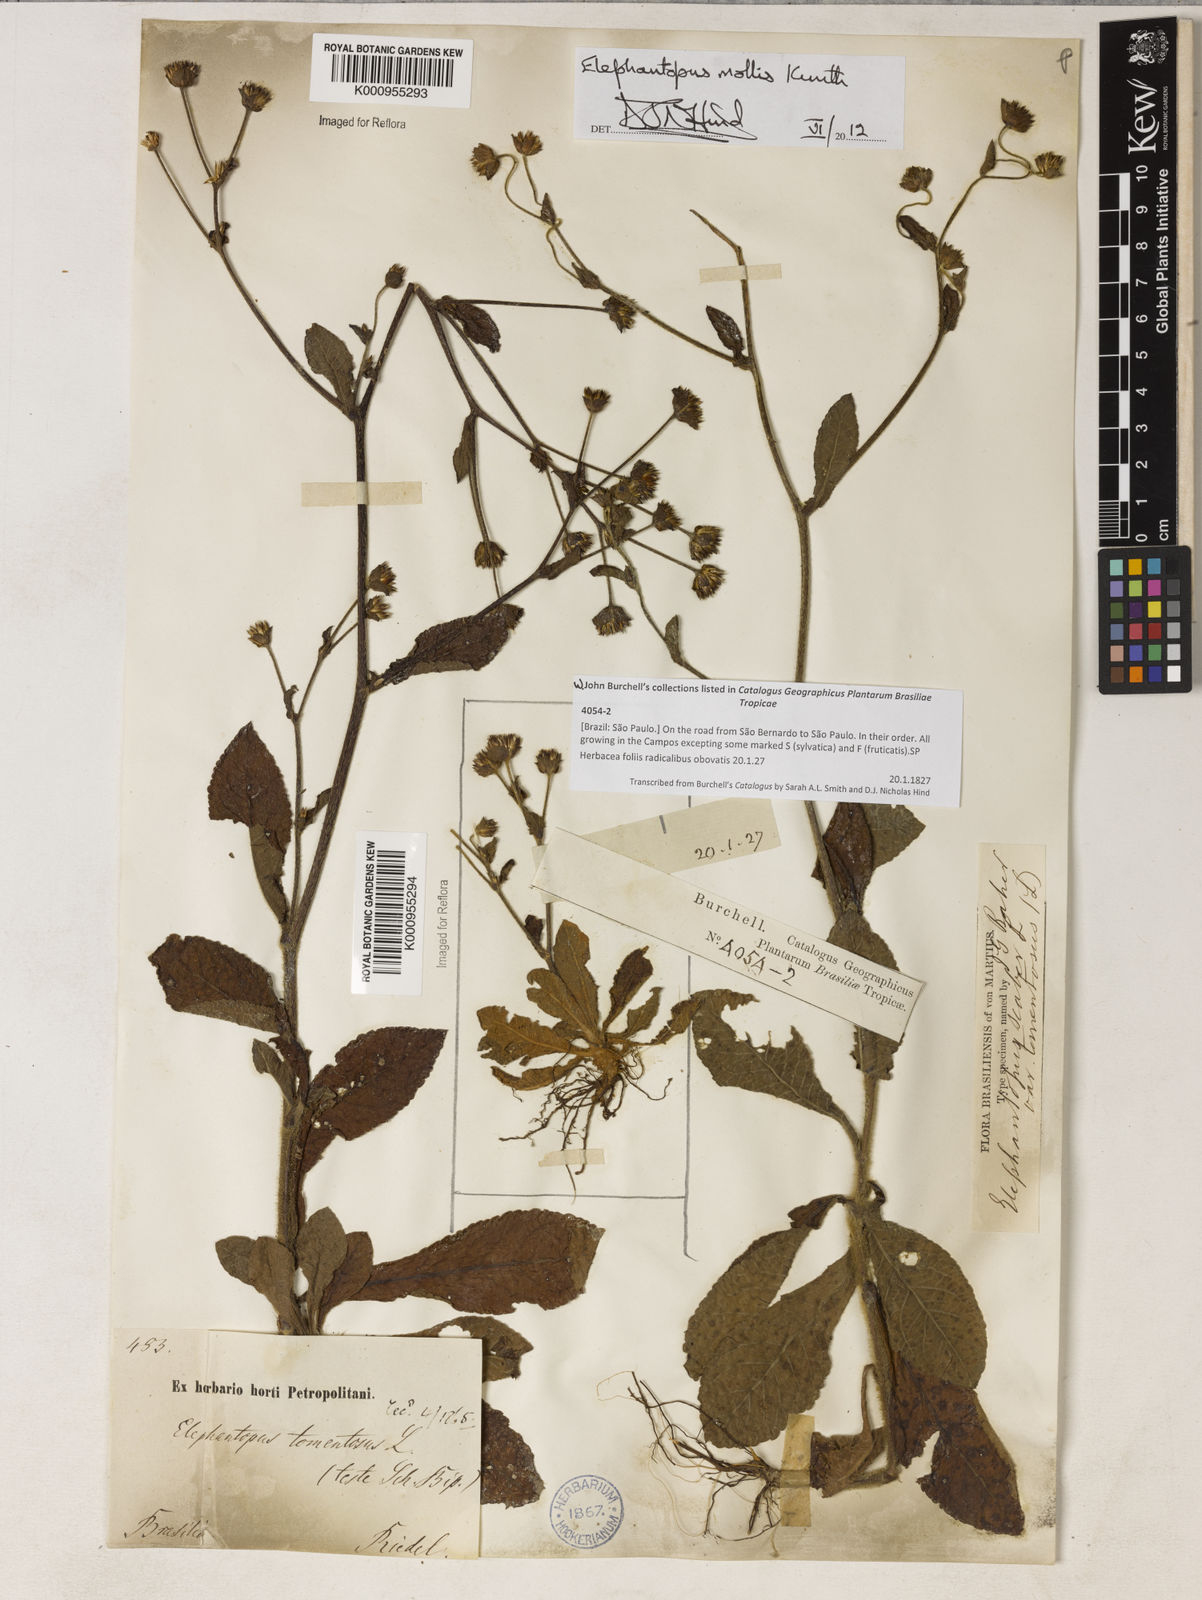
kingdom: Plantae
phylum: Tracheophyta
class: Magnoliopsida
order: Asterales
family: Asteraceae
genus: Elephantopus
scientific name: Elephantopus mollis
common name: Soft elephantsfoot
